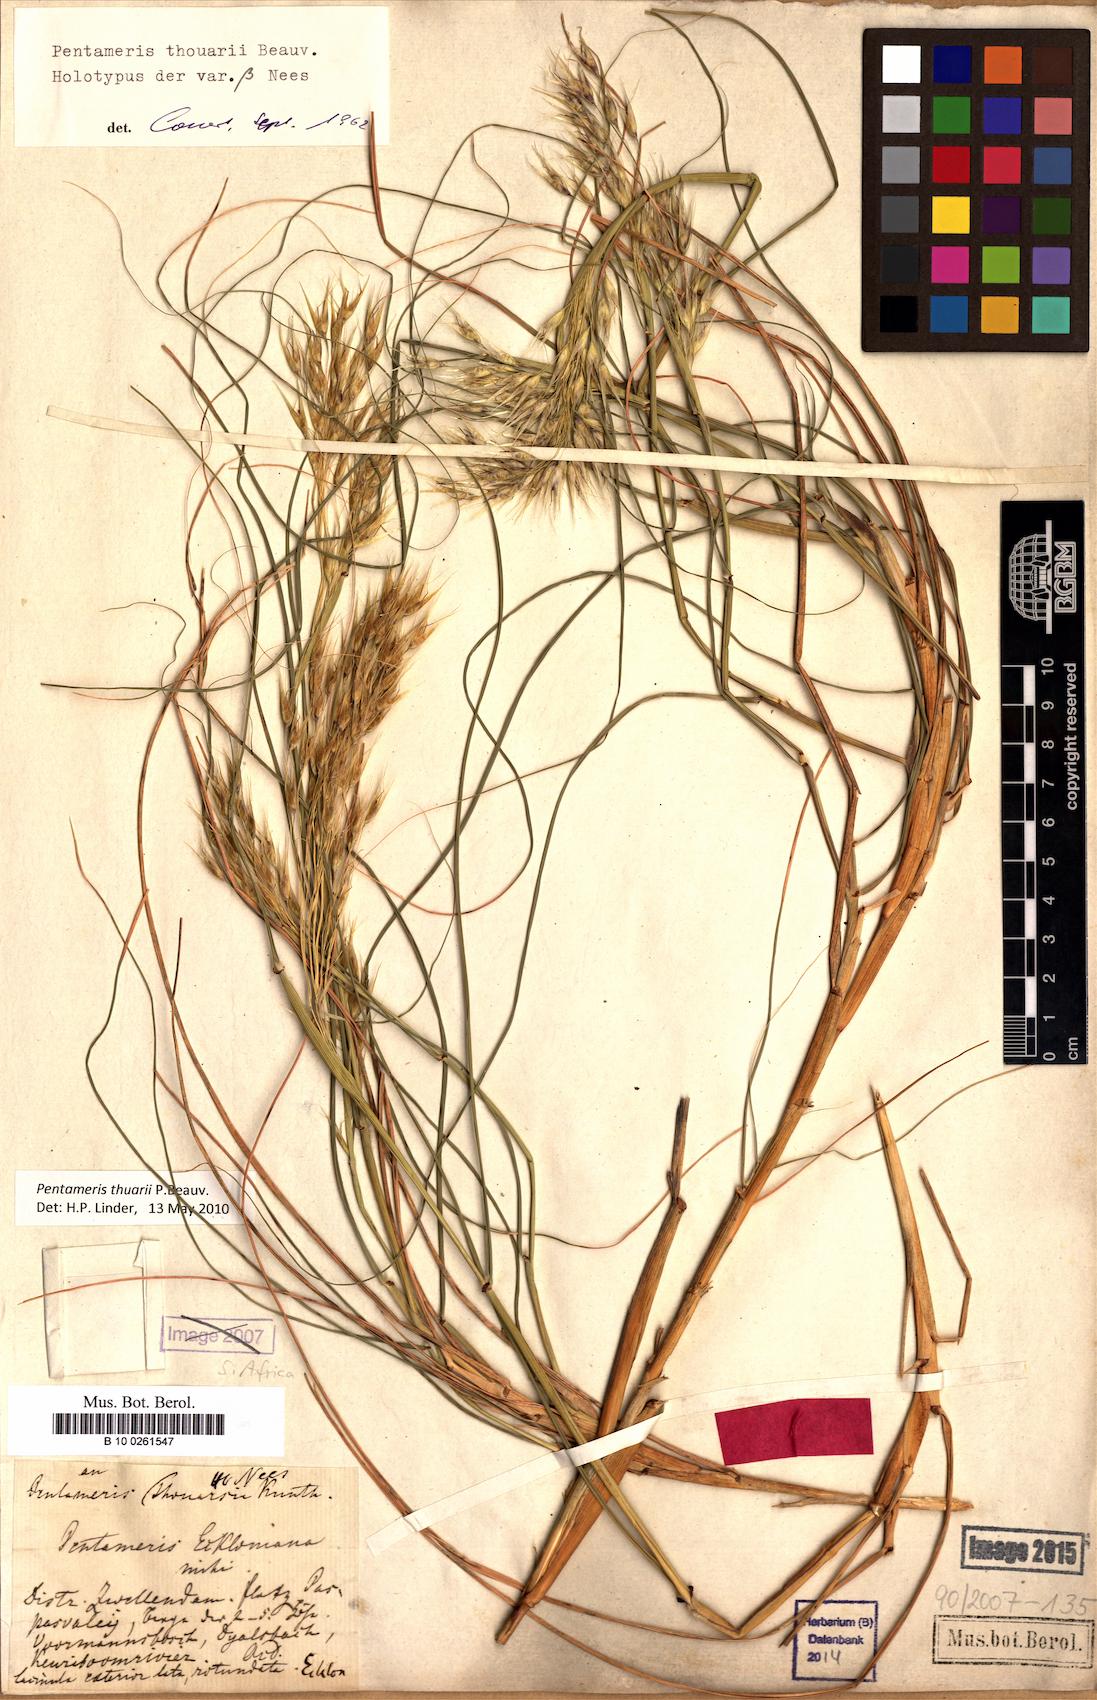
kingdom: Plantae
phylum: Tracheophyta
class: Liliopsida
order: Poales
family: Poaceae
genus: Pentameris
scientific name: Pentameris thouarii
